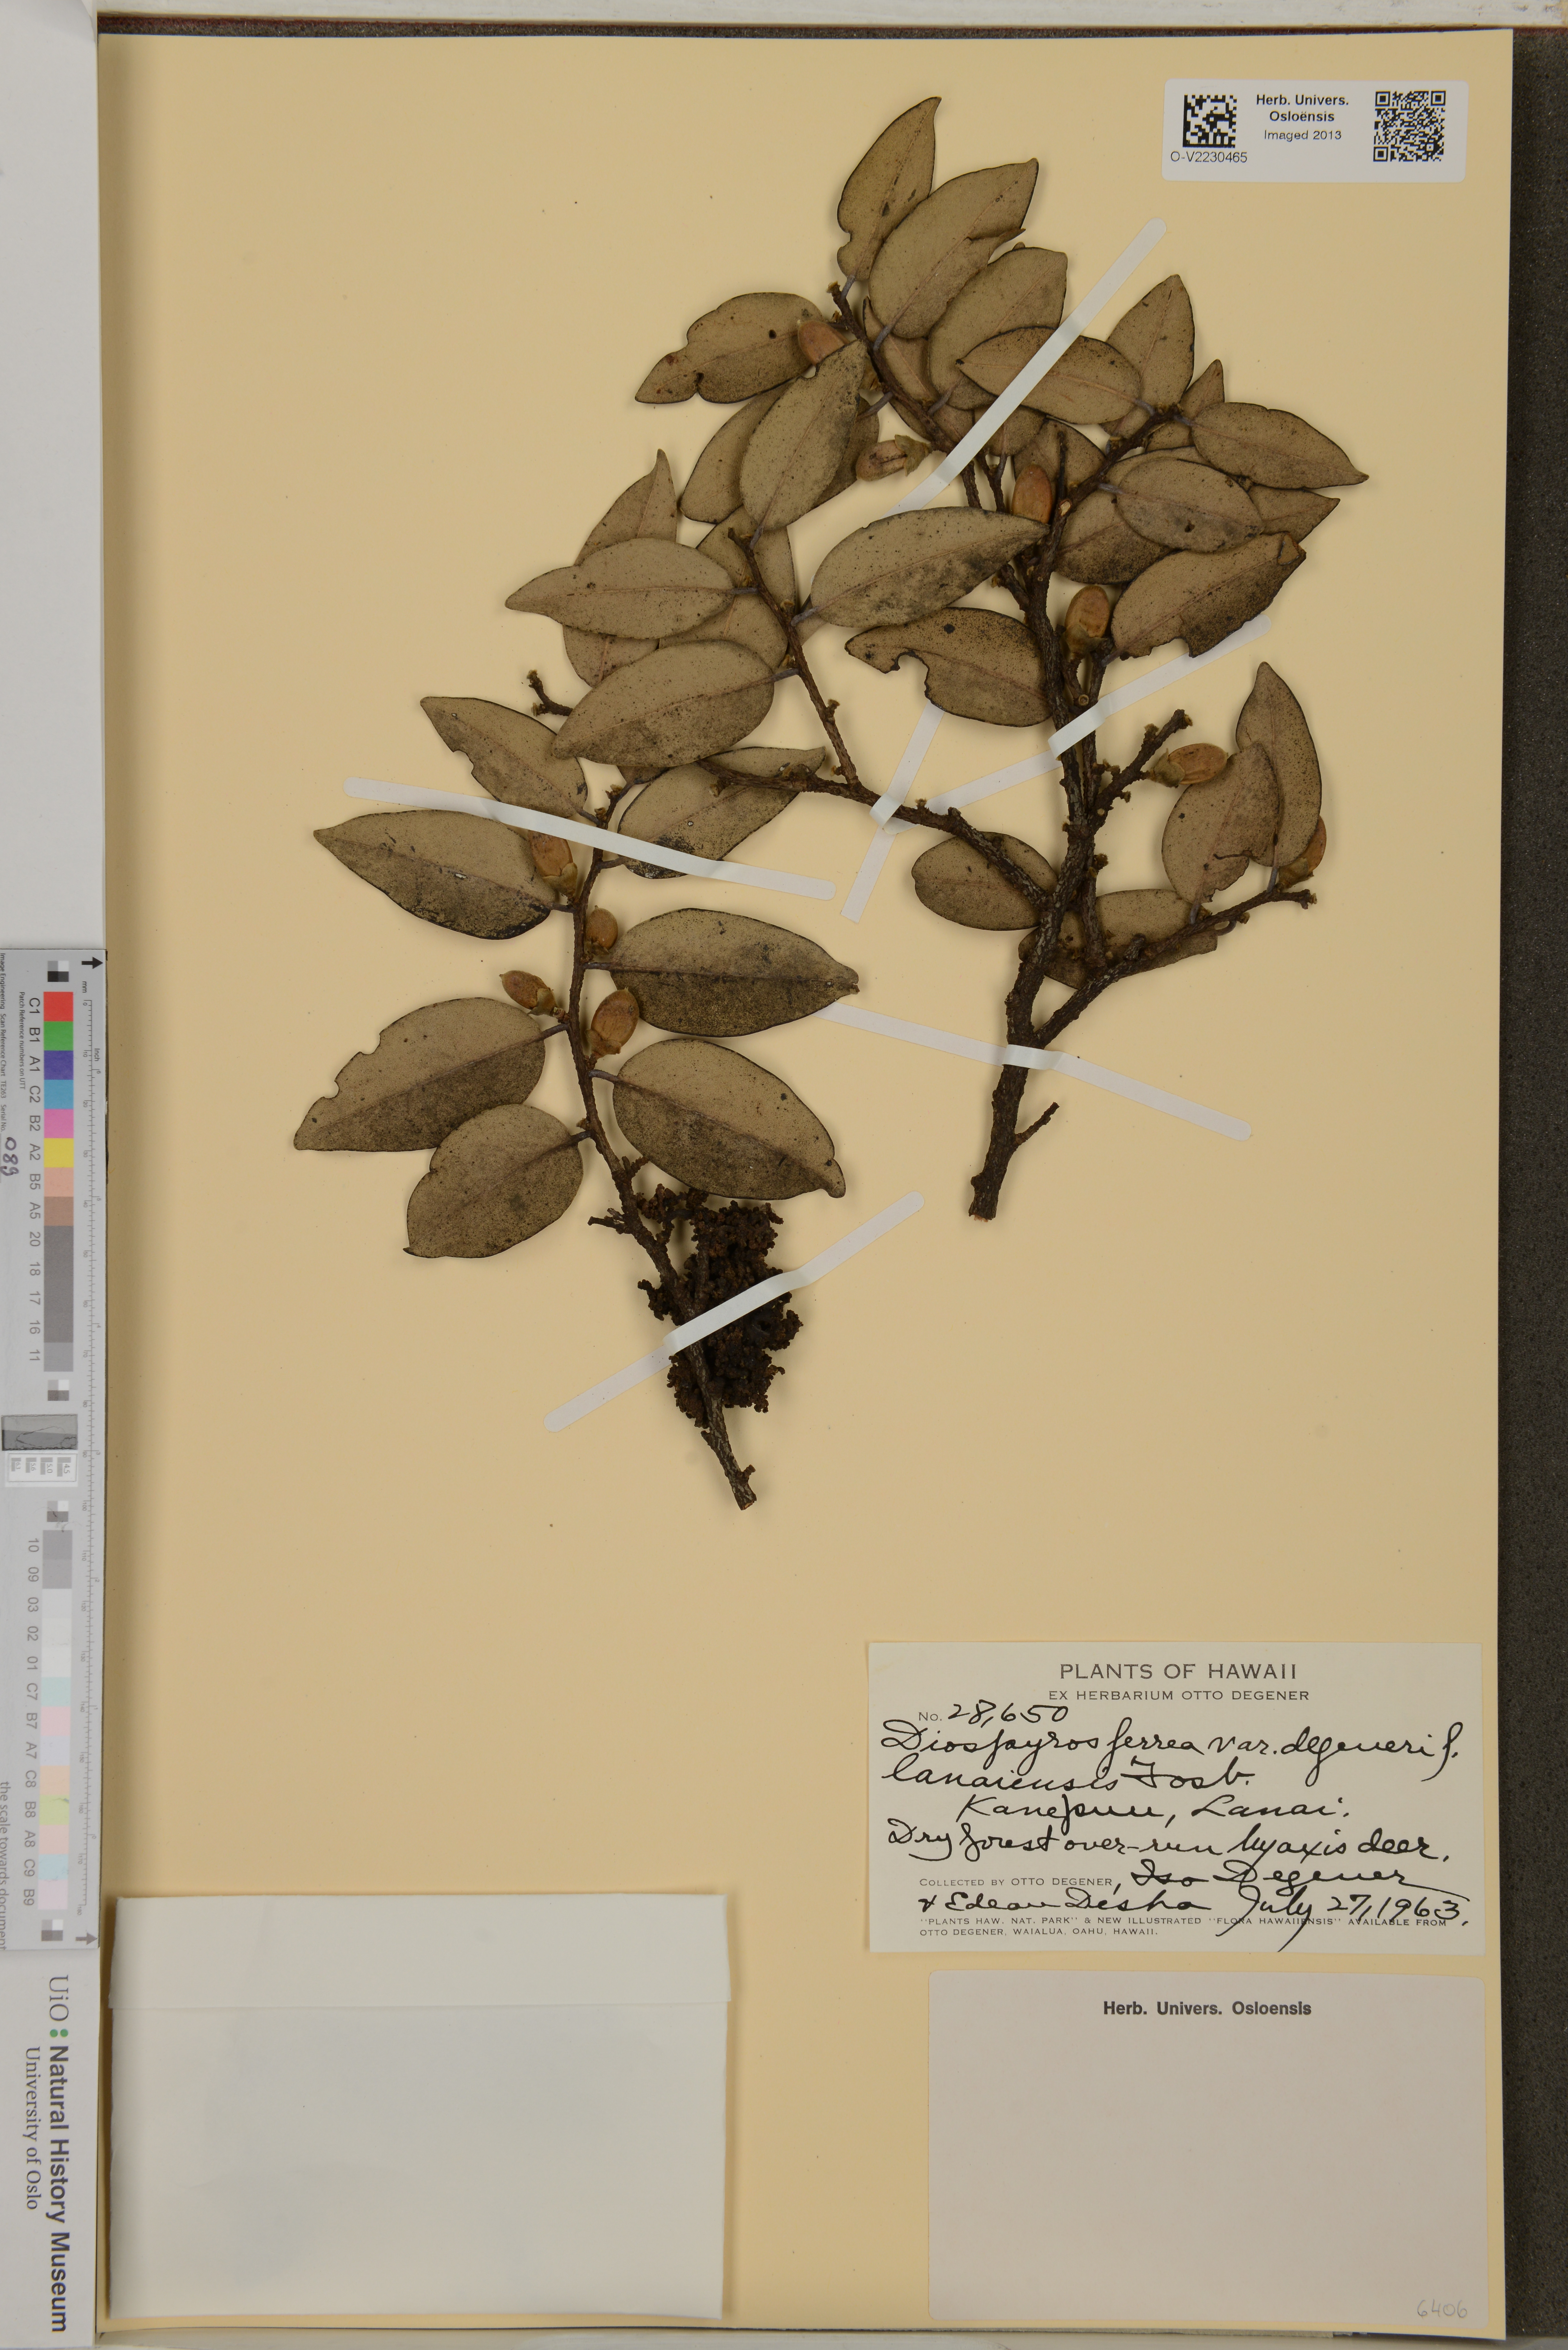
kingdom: Plantae
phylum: Tracheophyta
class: Magnoliopsida
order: Ericales
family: Ebenaceae
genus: Diospyros
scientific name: Diospyros ferrea
